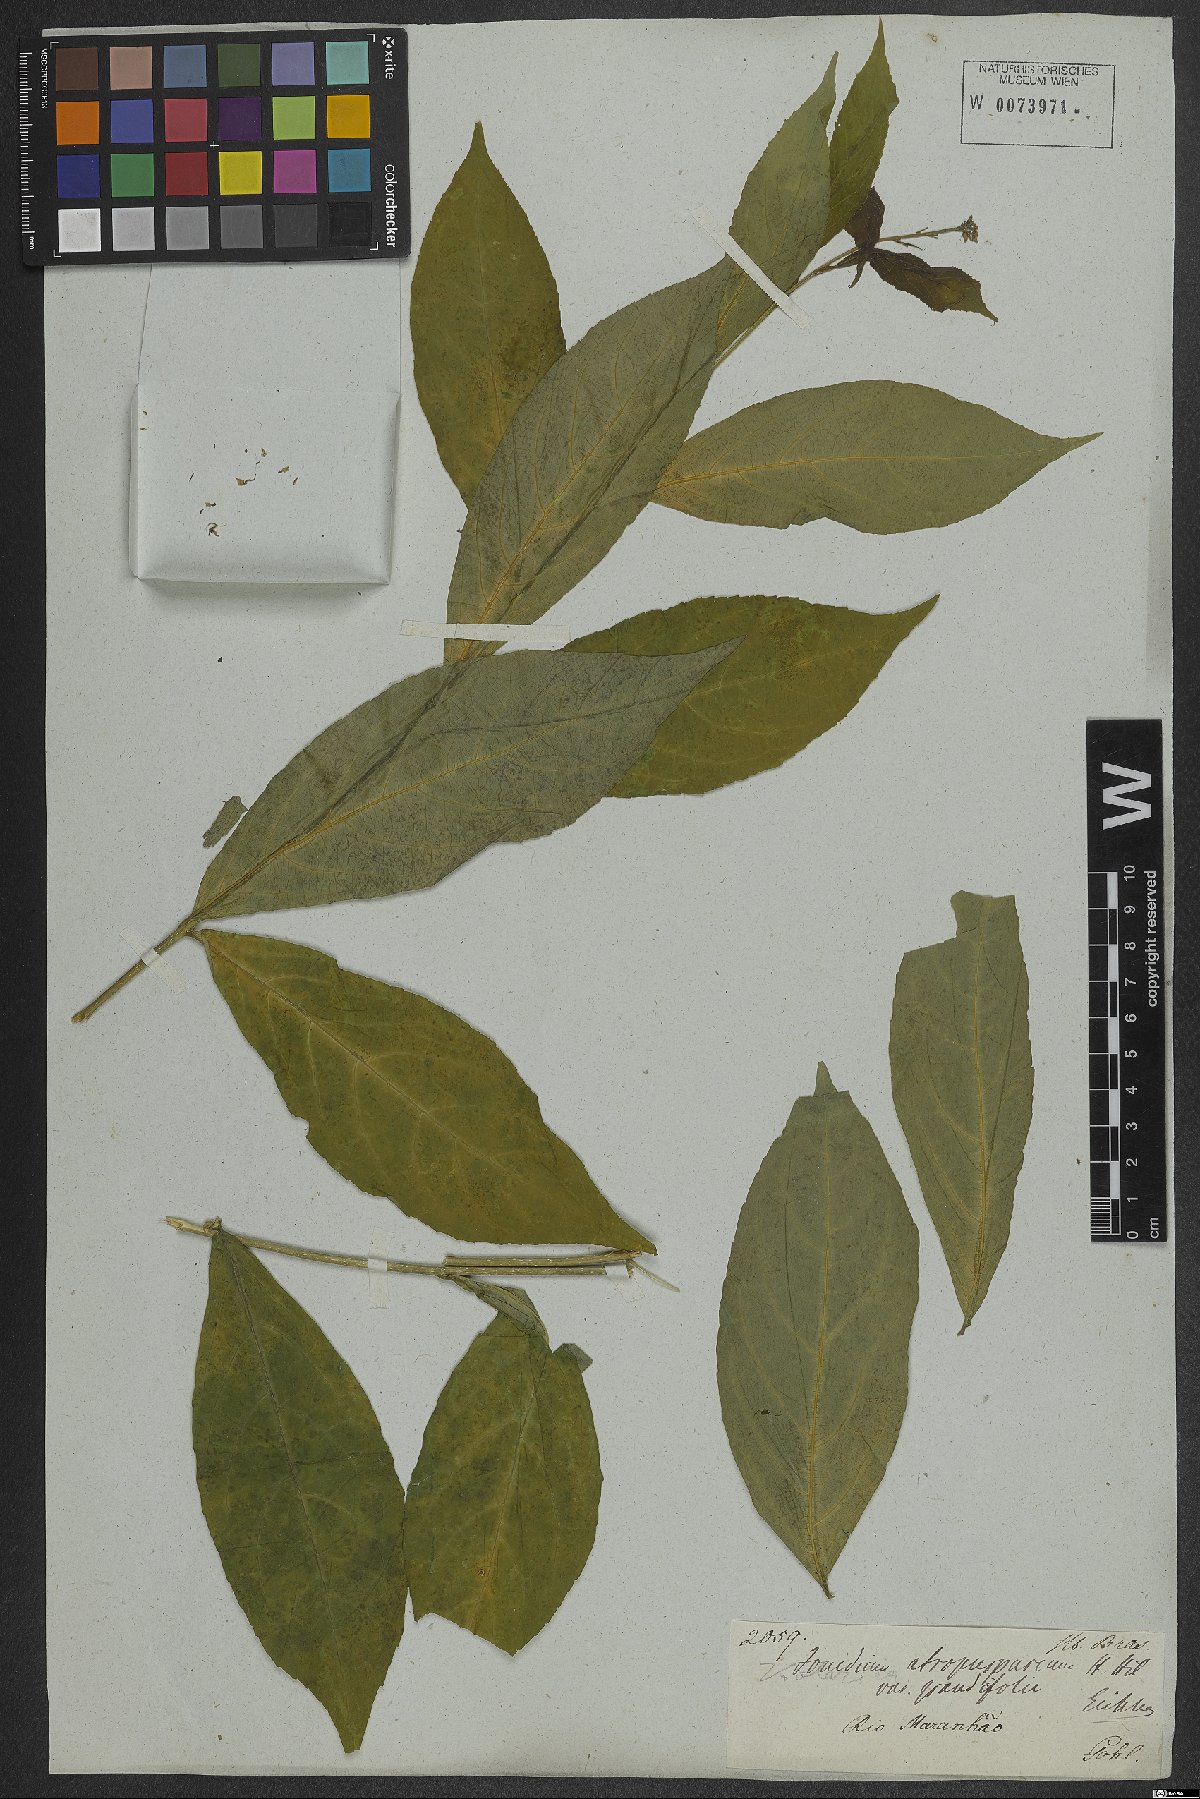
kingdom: Plantae
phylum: Tracheophyta
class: Magnoliopsida
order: Malpighiales
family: Violaceae
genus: Pombalia
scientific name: Pombalia atropurpurea
